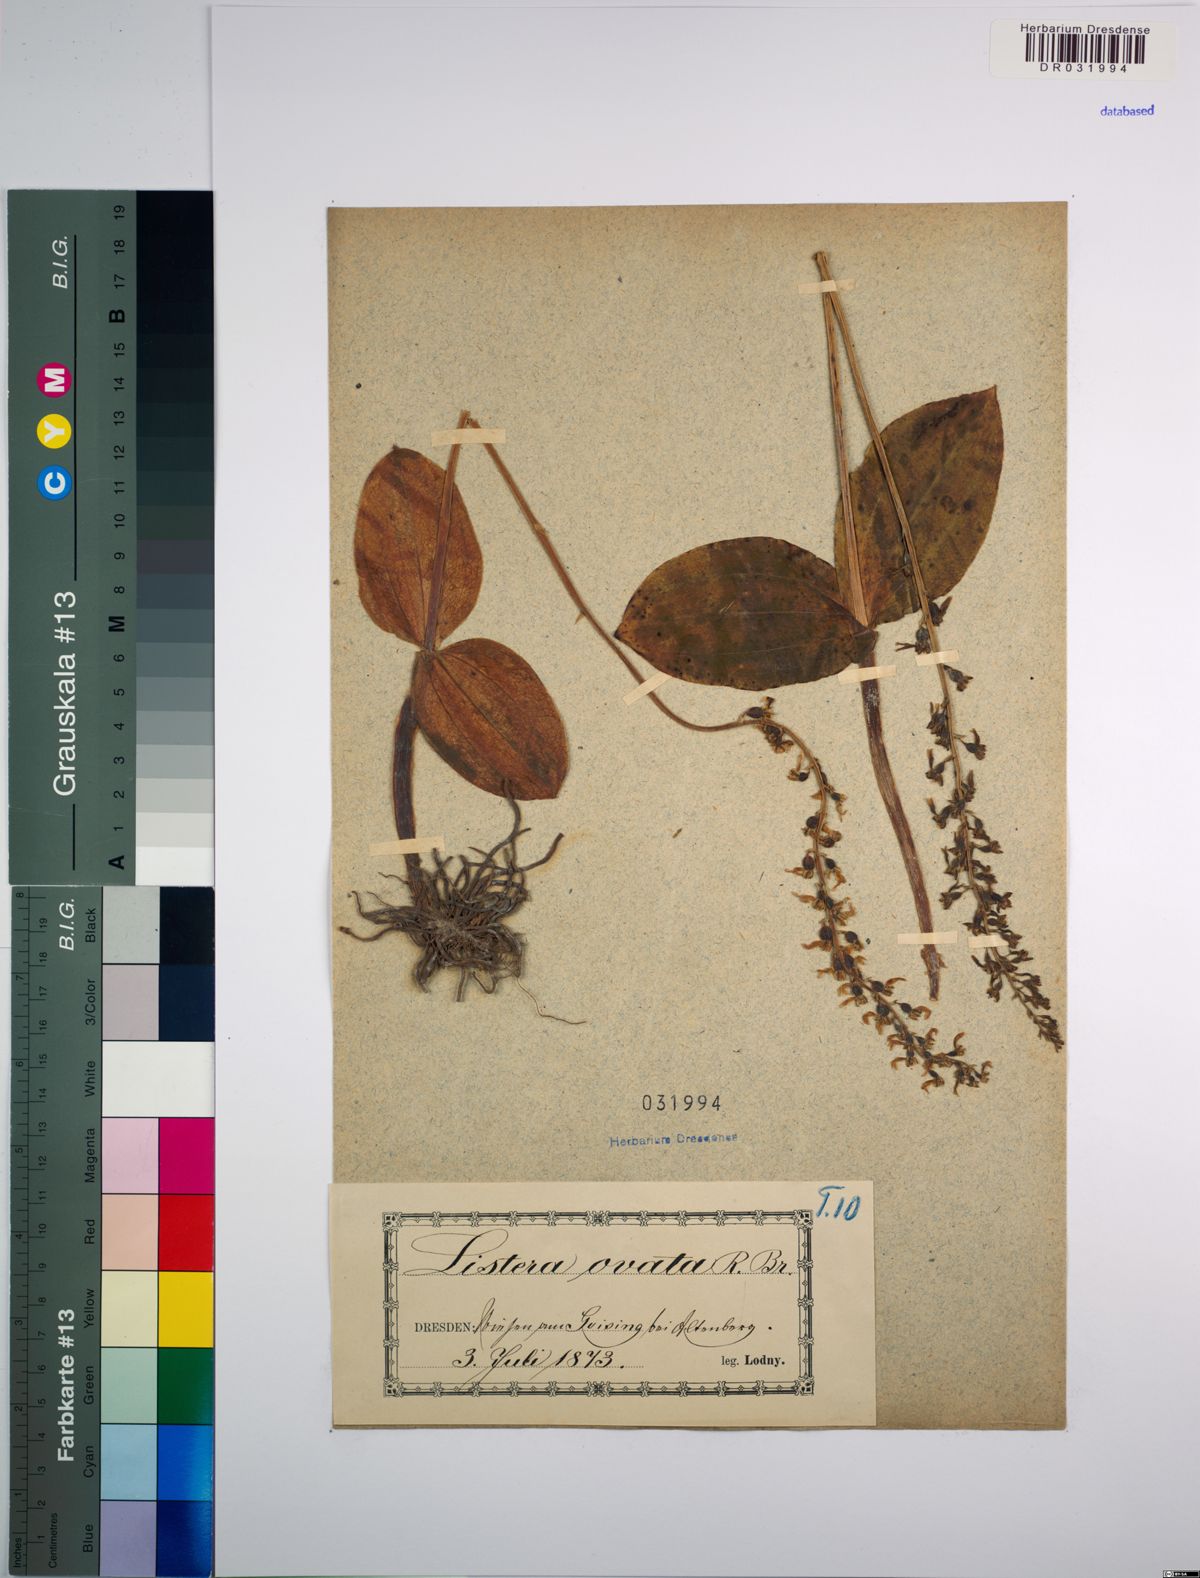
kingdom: Plantae
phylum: Tracheophyta
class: Liliopsida
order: Asparagales
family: Orchidaceae
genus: Neottia
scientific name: Neottia ovata
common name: Common twayblade
